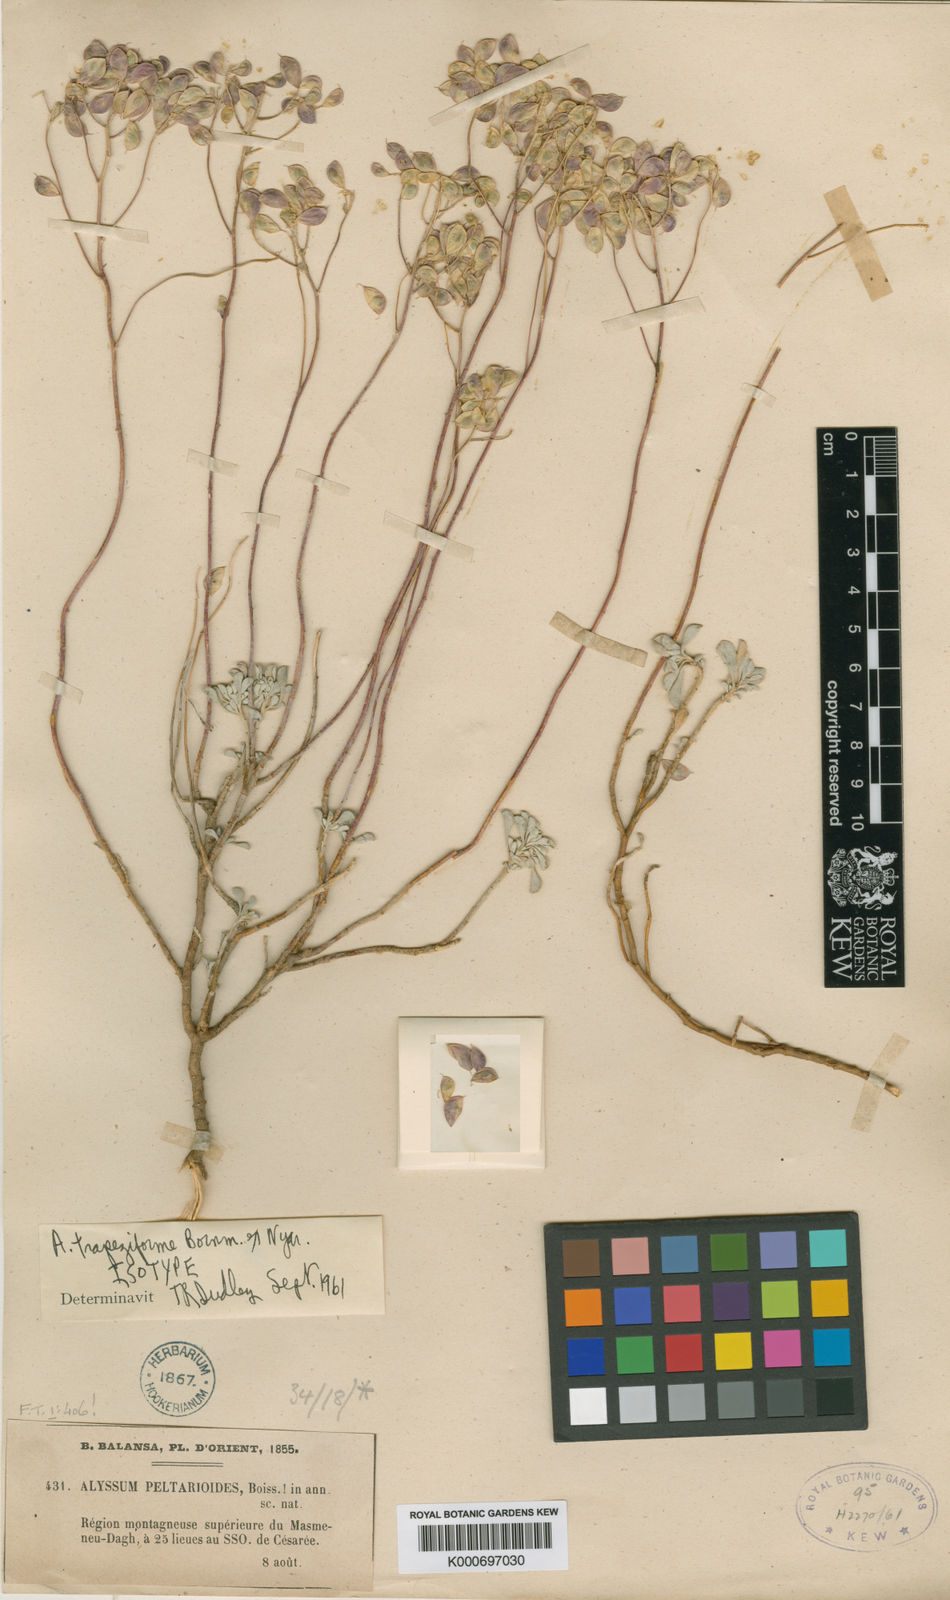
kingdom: Plantae
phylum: Tracheophyta
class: Magnoliopsida
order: Brassicales
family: Brassicaceae
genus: Odontarrhena
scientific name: Odontarrhena trapeziformis
